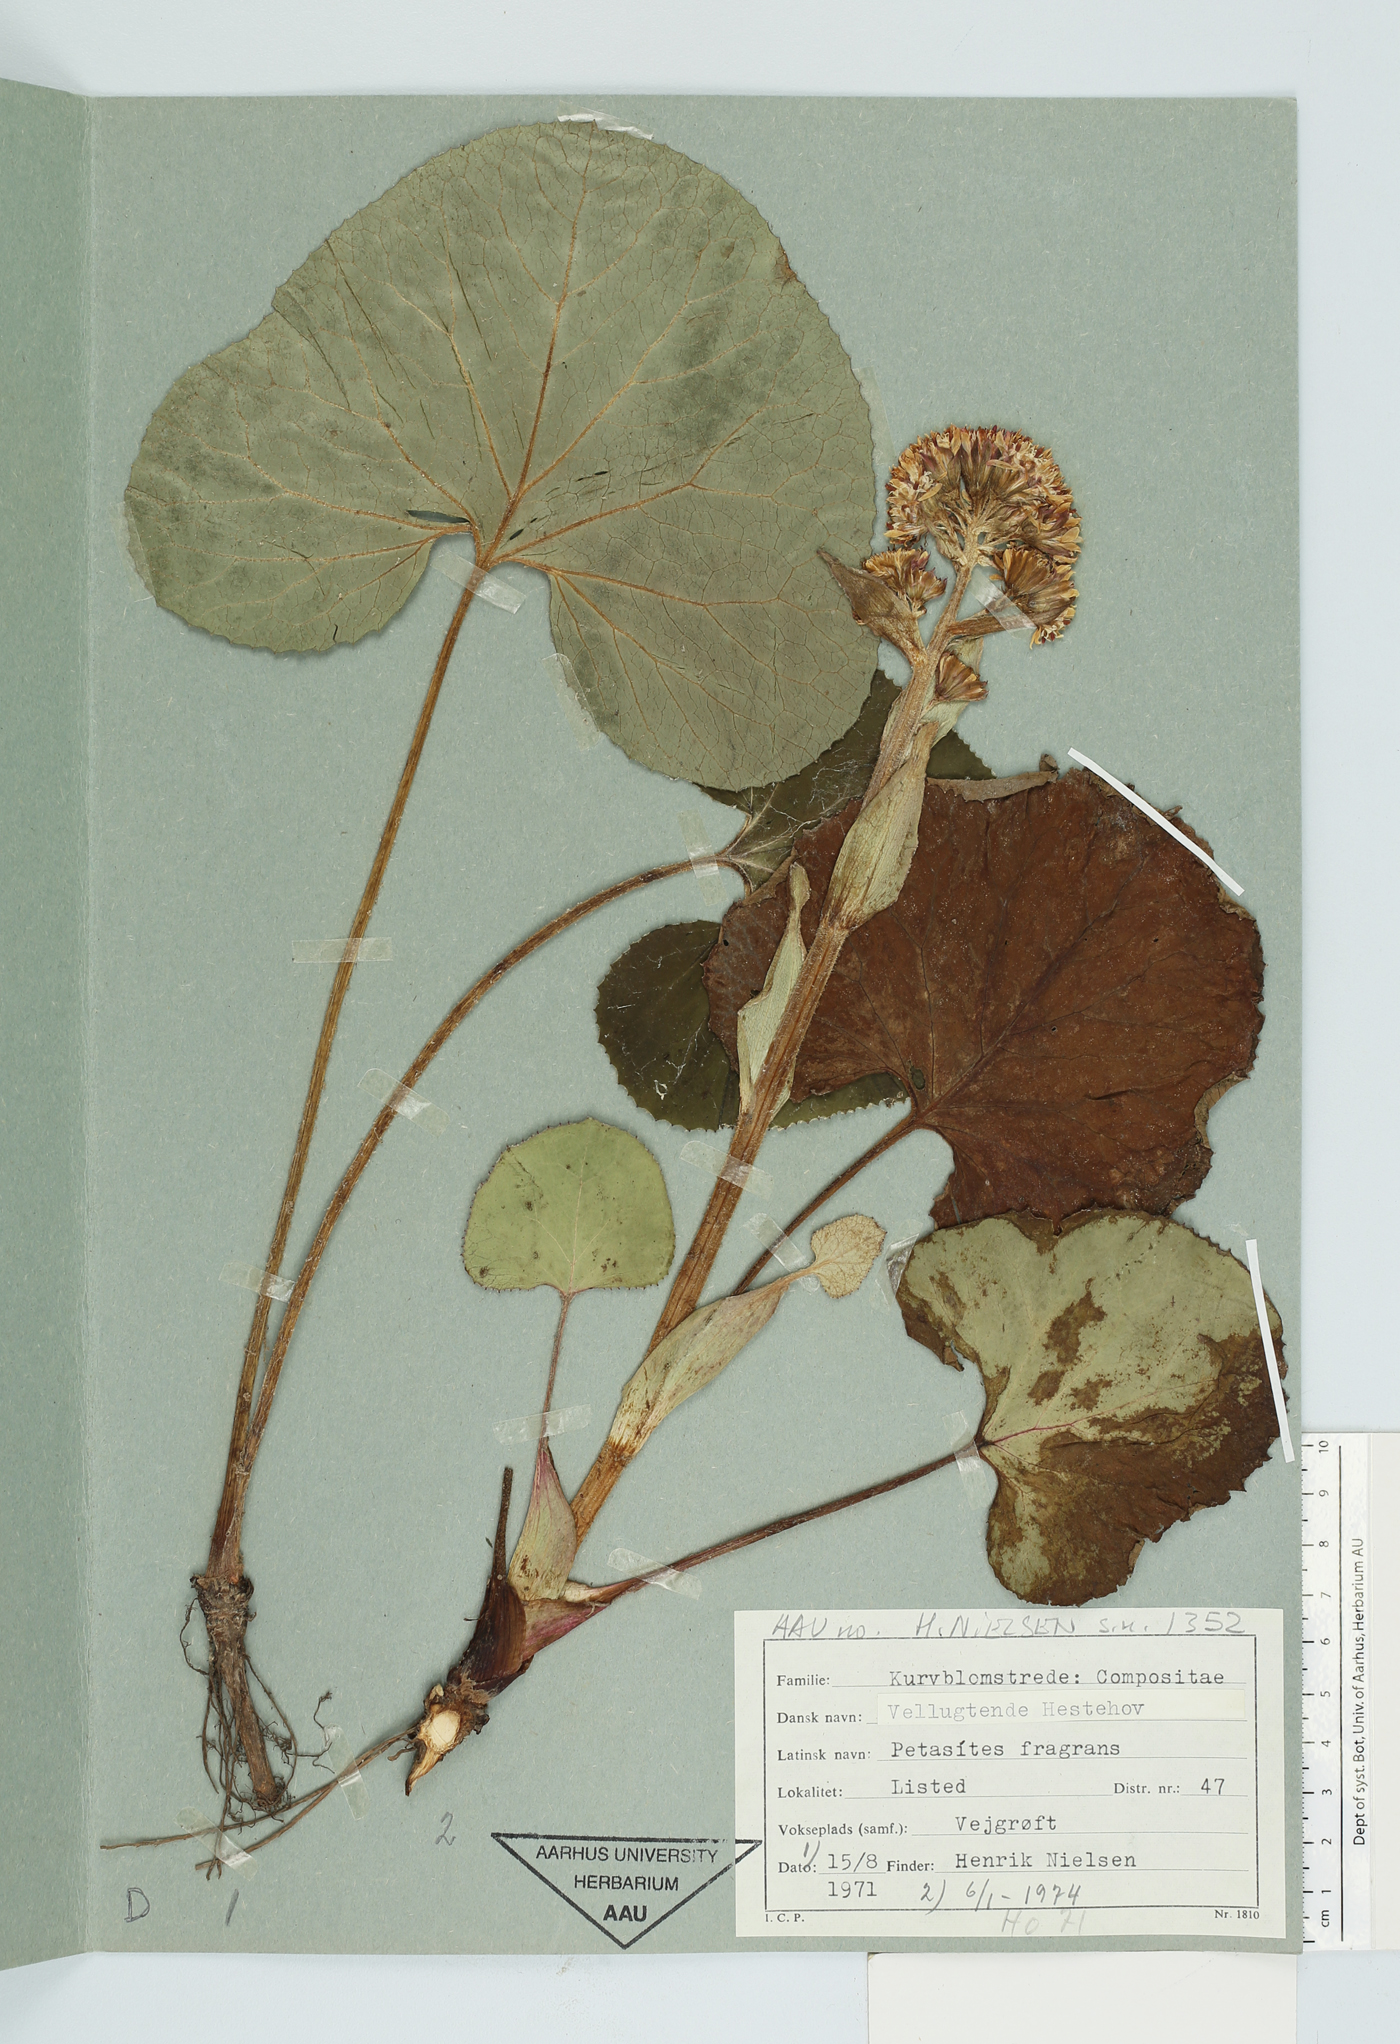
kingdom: Plantae
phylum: Tracheophyta
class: Magnoliopsida
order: Asterales
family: Asteraceae
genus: Petasites
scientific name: Petasites pyrenaicus
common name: Winter heliotrope
